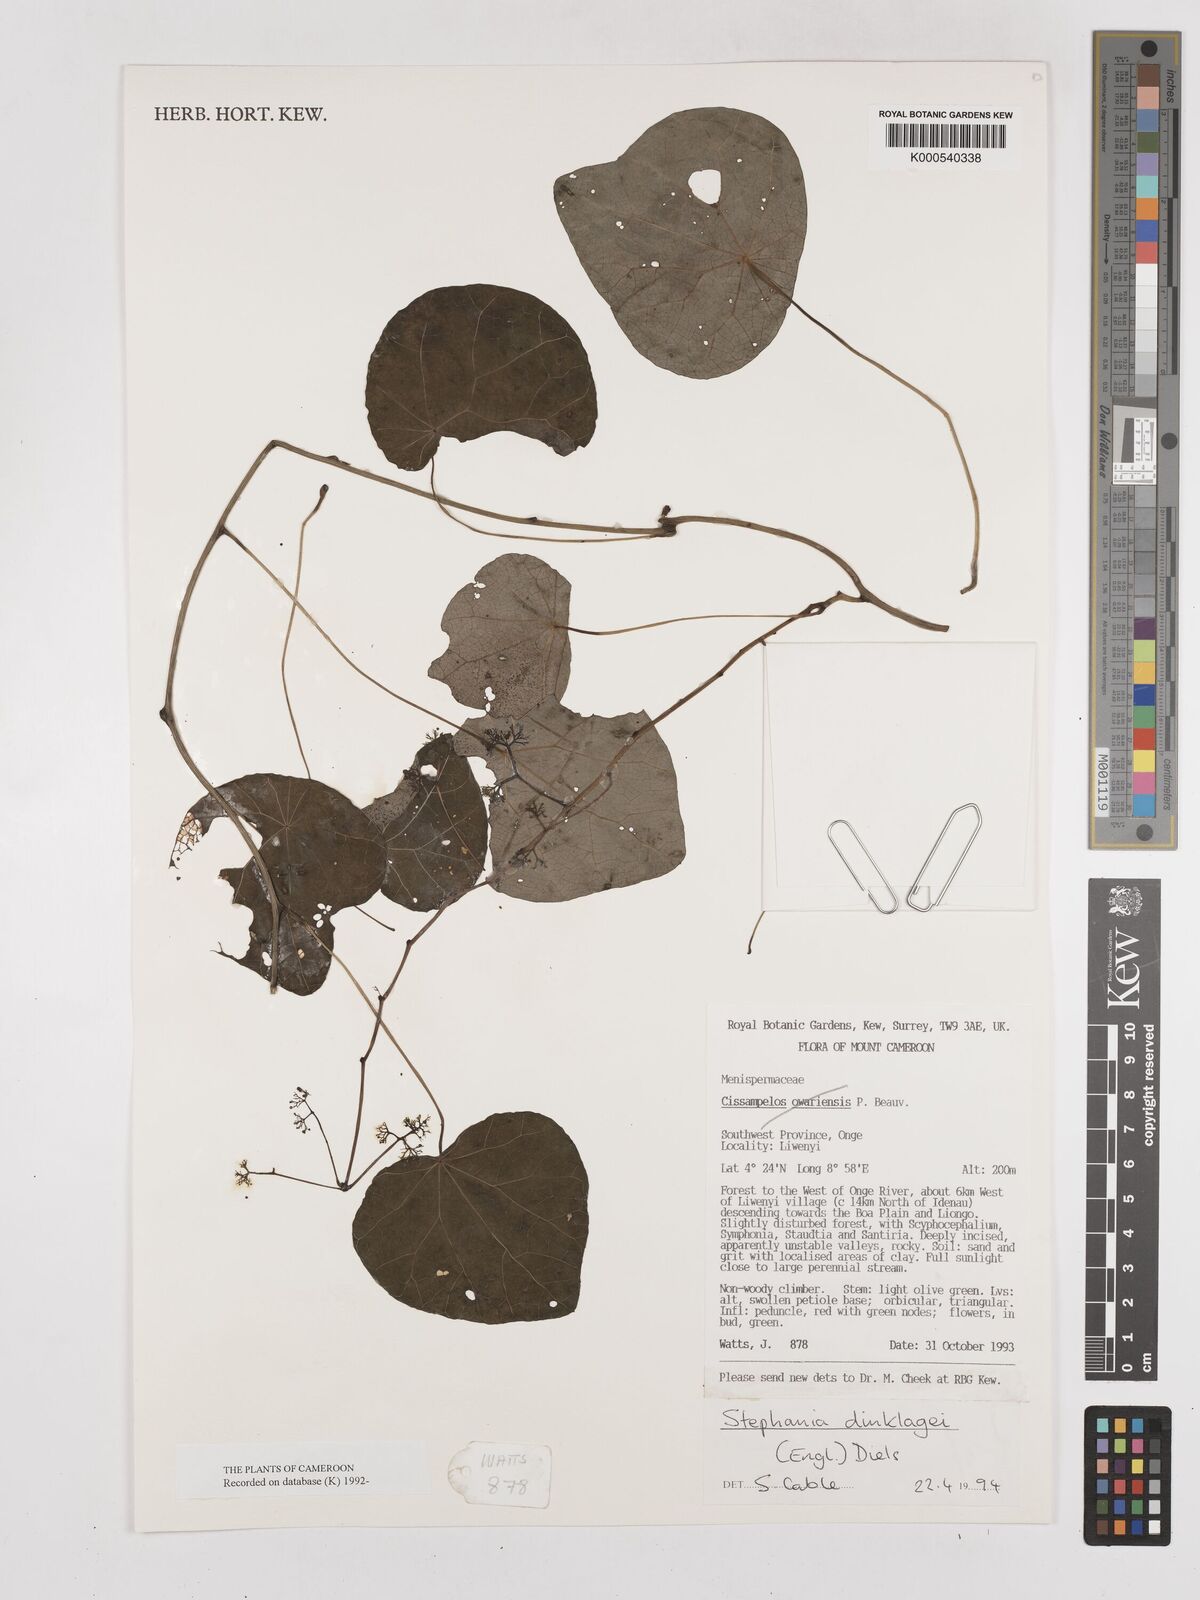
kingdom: Plantae
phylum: Tracheophyta
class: Magnoliopsida
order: Ranunculales
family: Menispermaceae
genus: Stephania
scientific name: Stephania dinklagei
